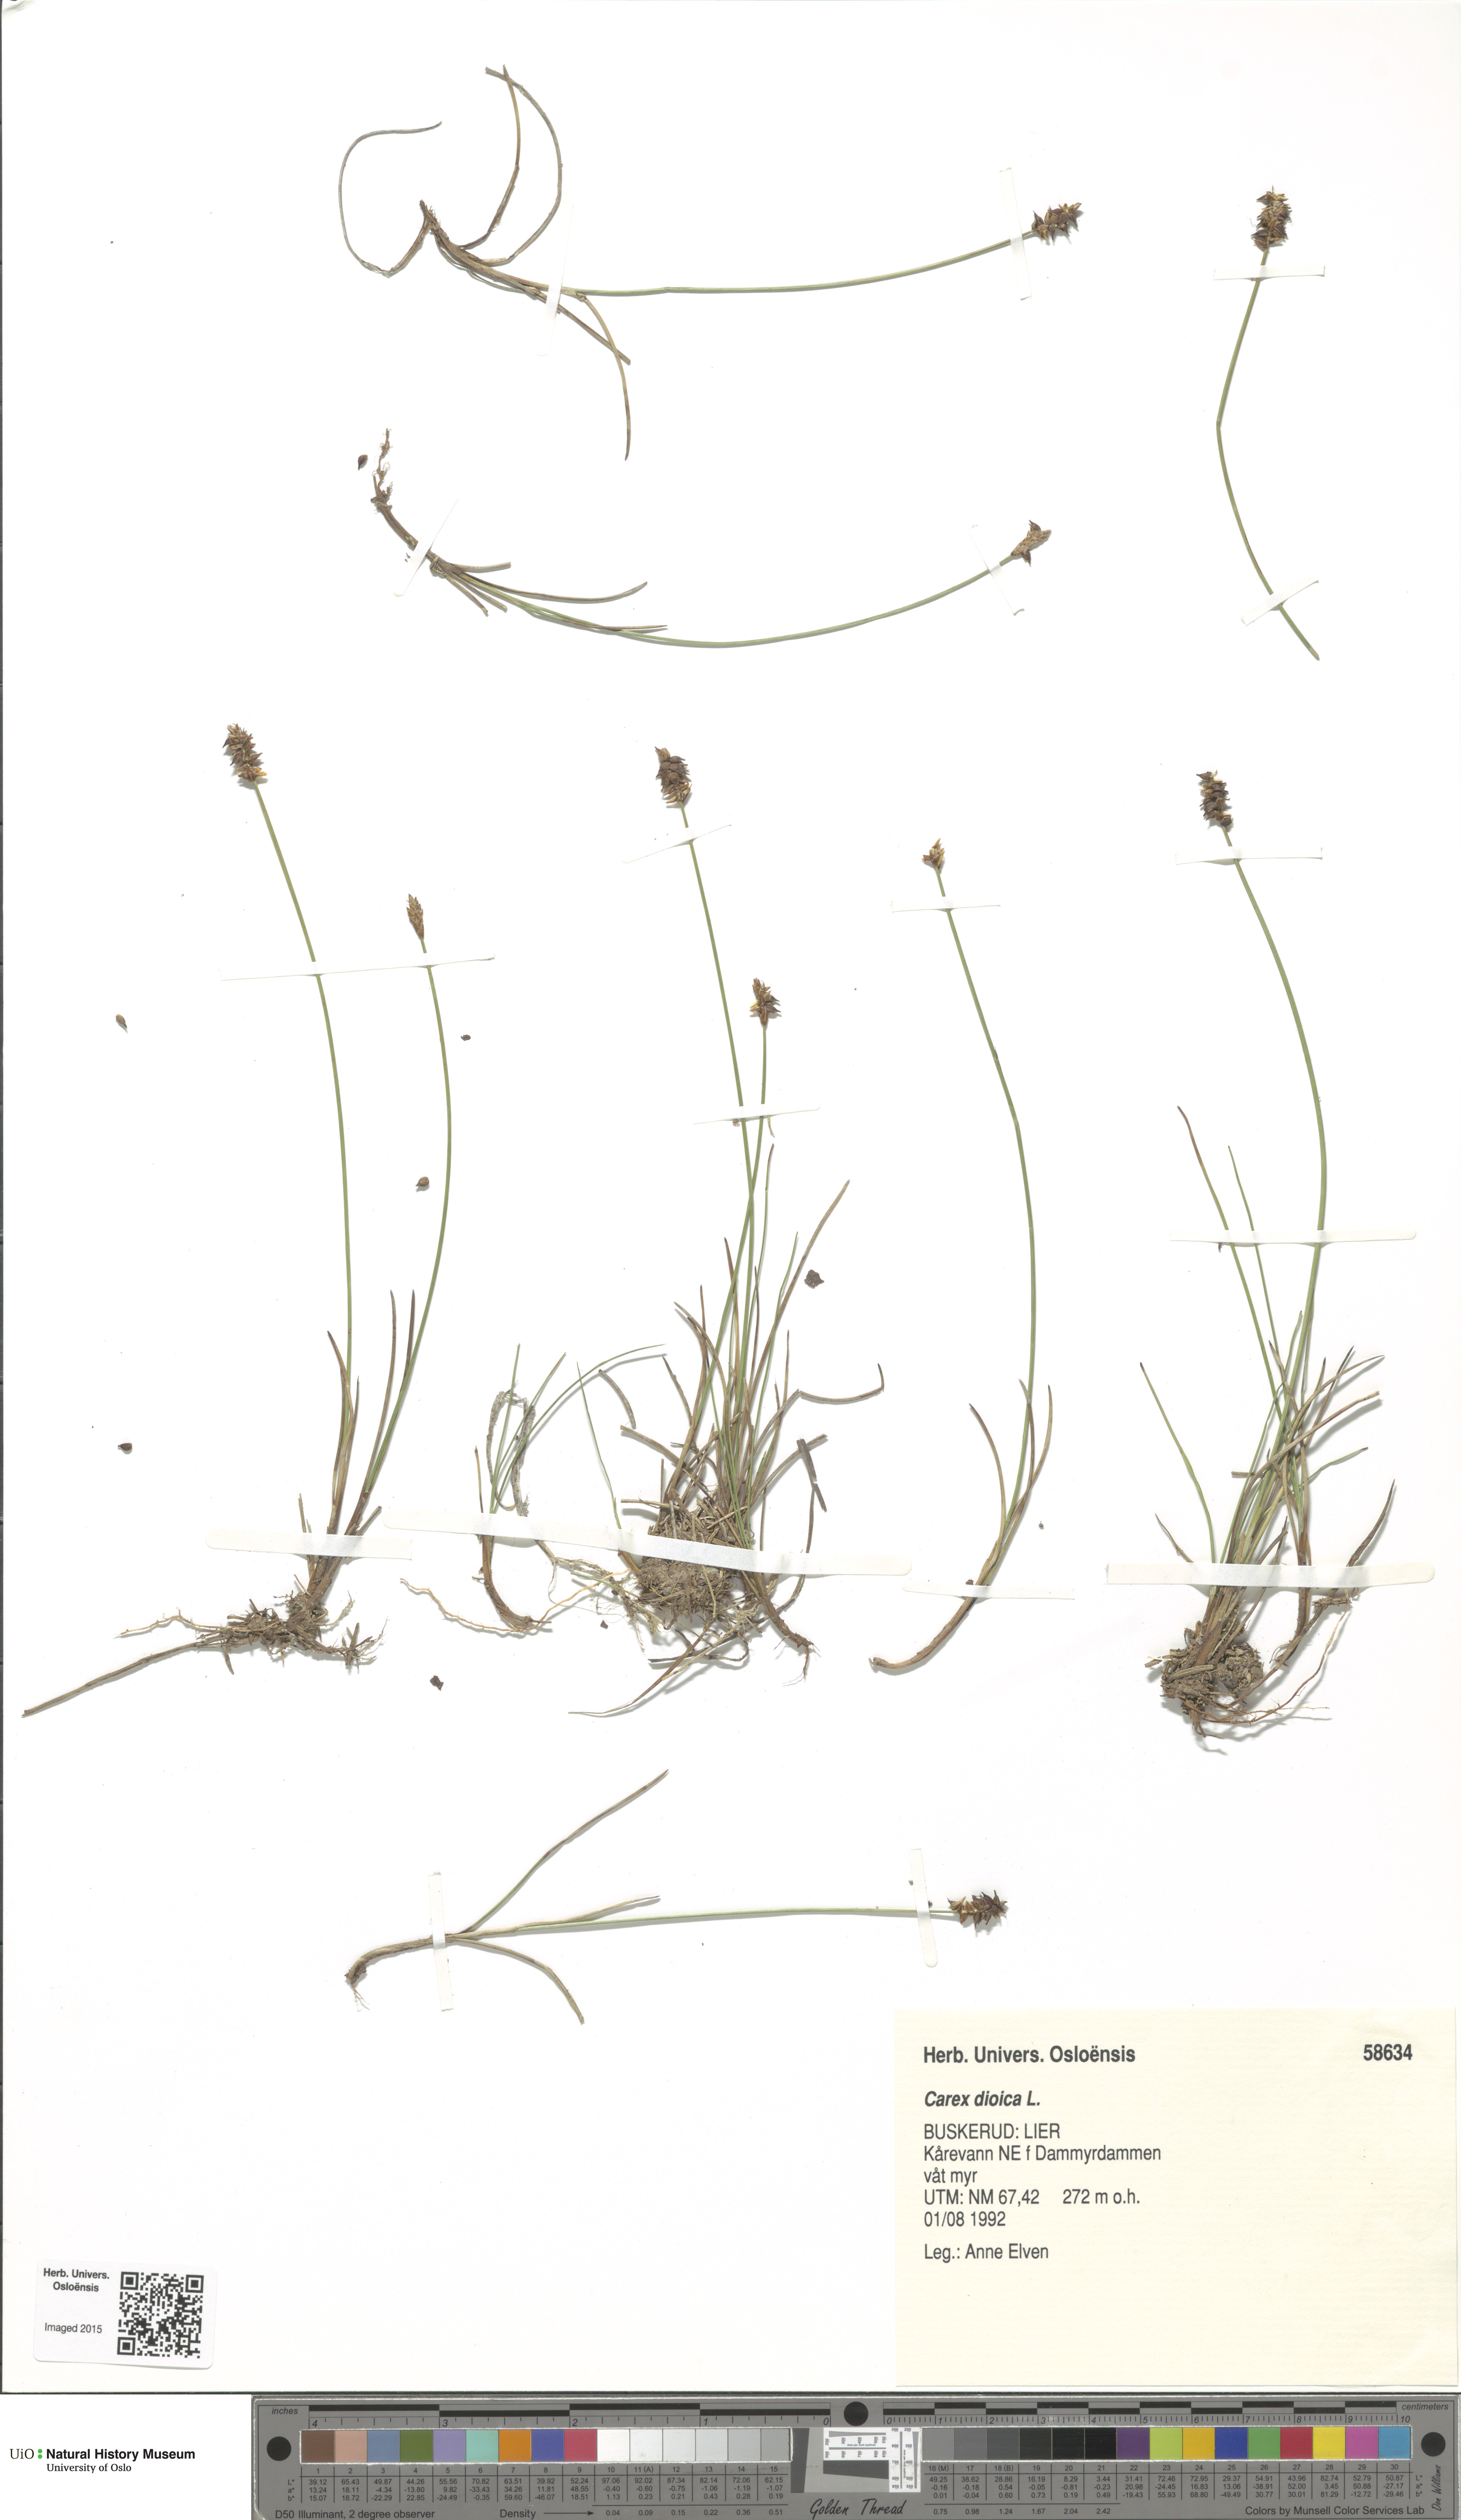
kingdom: Plantae
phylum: Tracheophyta
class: Liliopsida
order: Poales
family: Cyperaceae
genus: Carex
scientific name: Carex dioica
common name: Dioecious sedge
